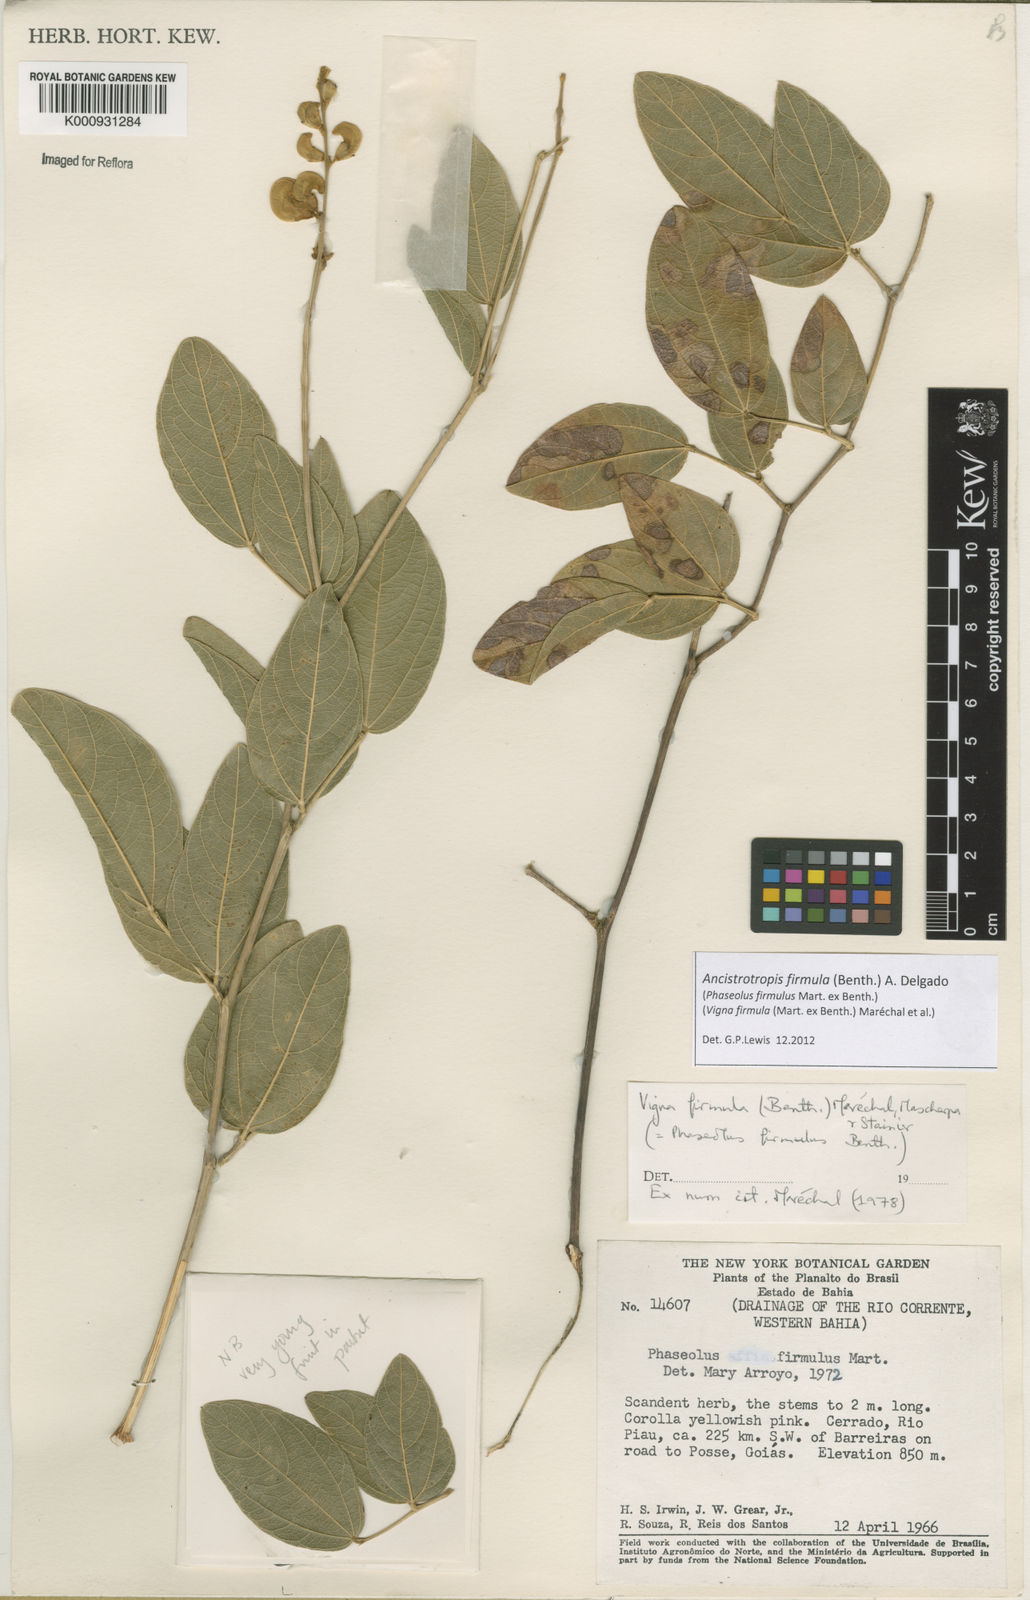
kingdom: Plantae
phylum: Tracheophyta
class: Magnoliopsida
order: Fabales
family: Fabaceae
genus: Ancistrotropis
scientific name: Ancistrotropis firmula
